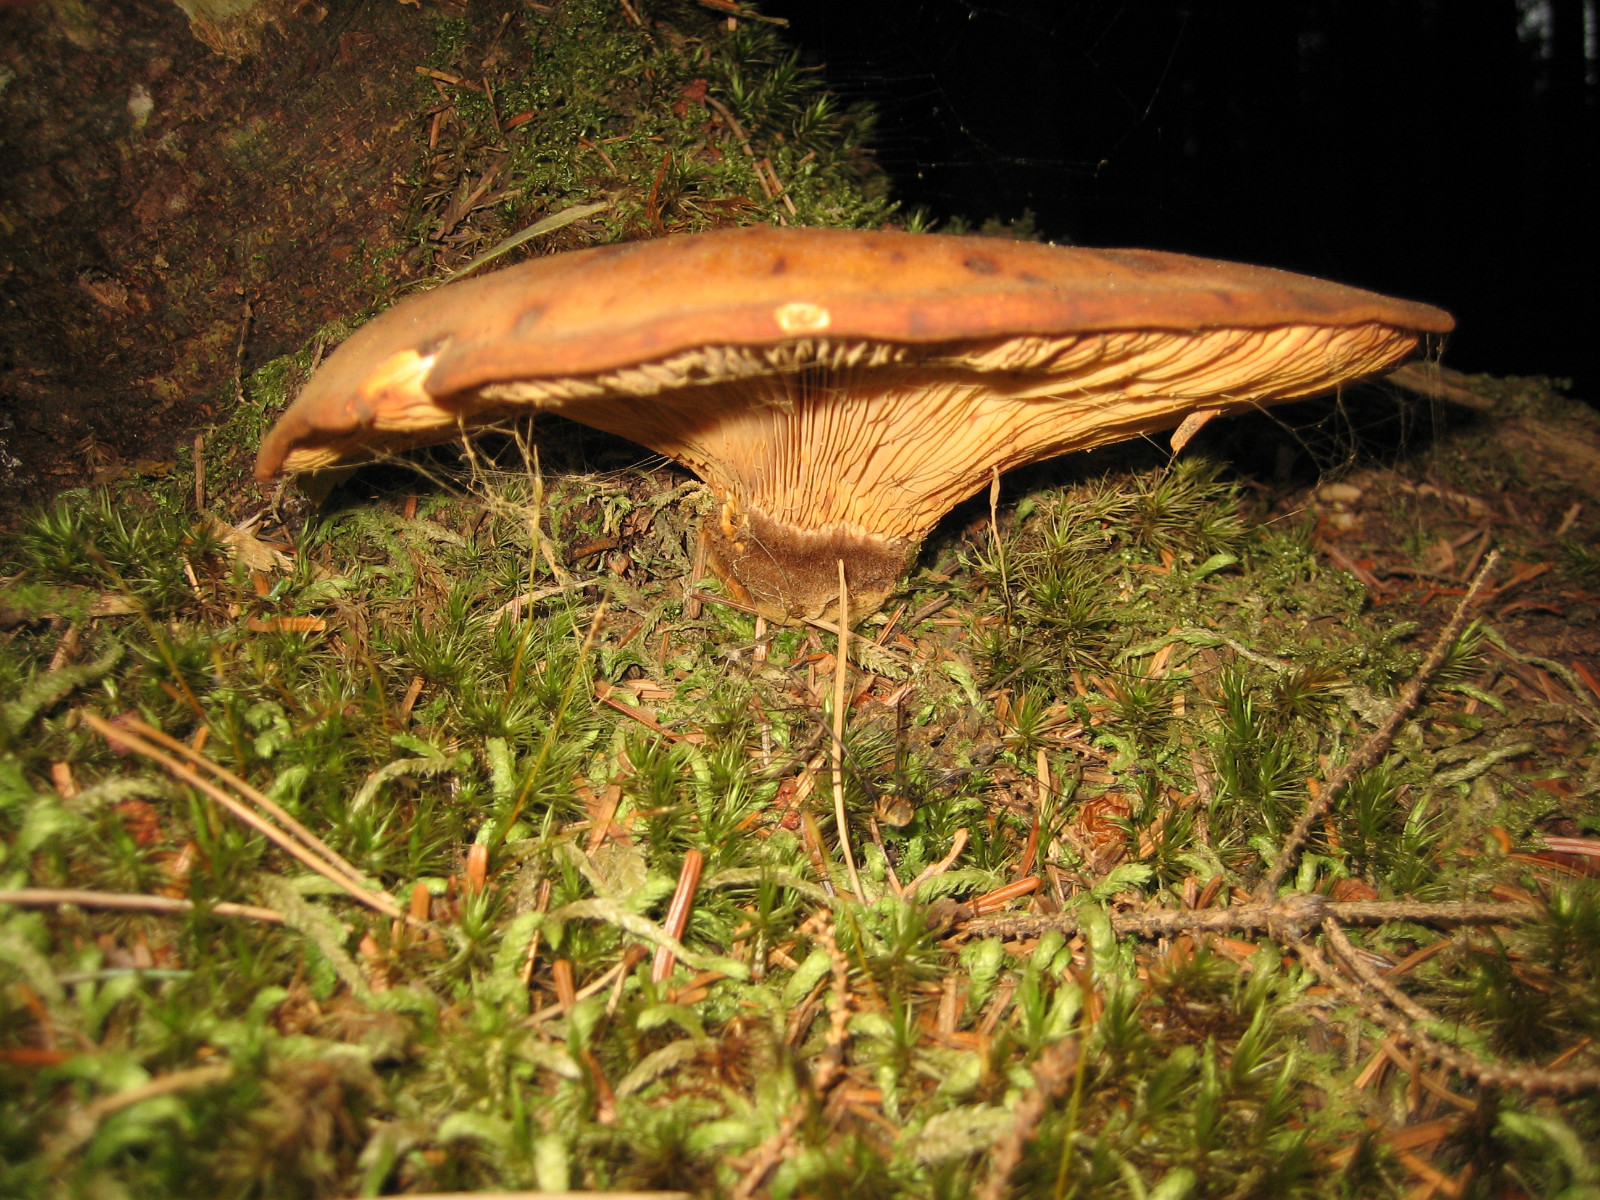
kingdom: Fungi
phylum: Basidiomycota
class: Agaricomycetes
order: Boletales
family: Tapinellaceae
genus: Tapinella
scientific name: Tapinella atrotomentosa
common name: sortfiltet viftesvamp
